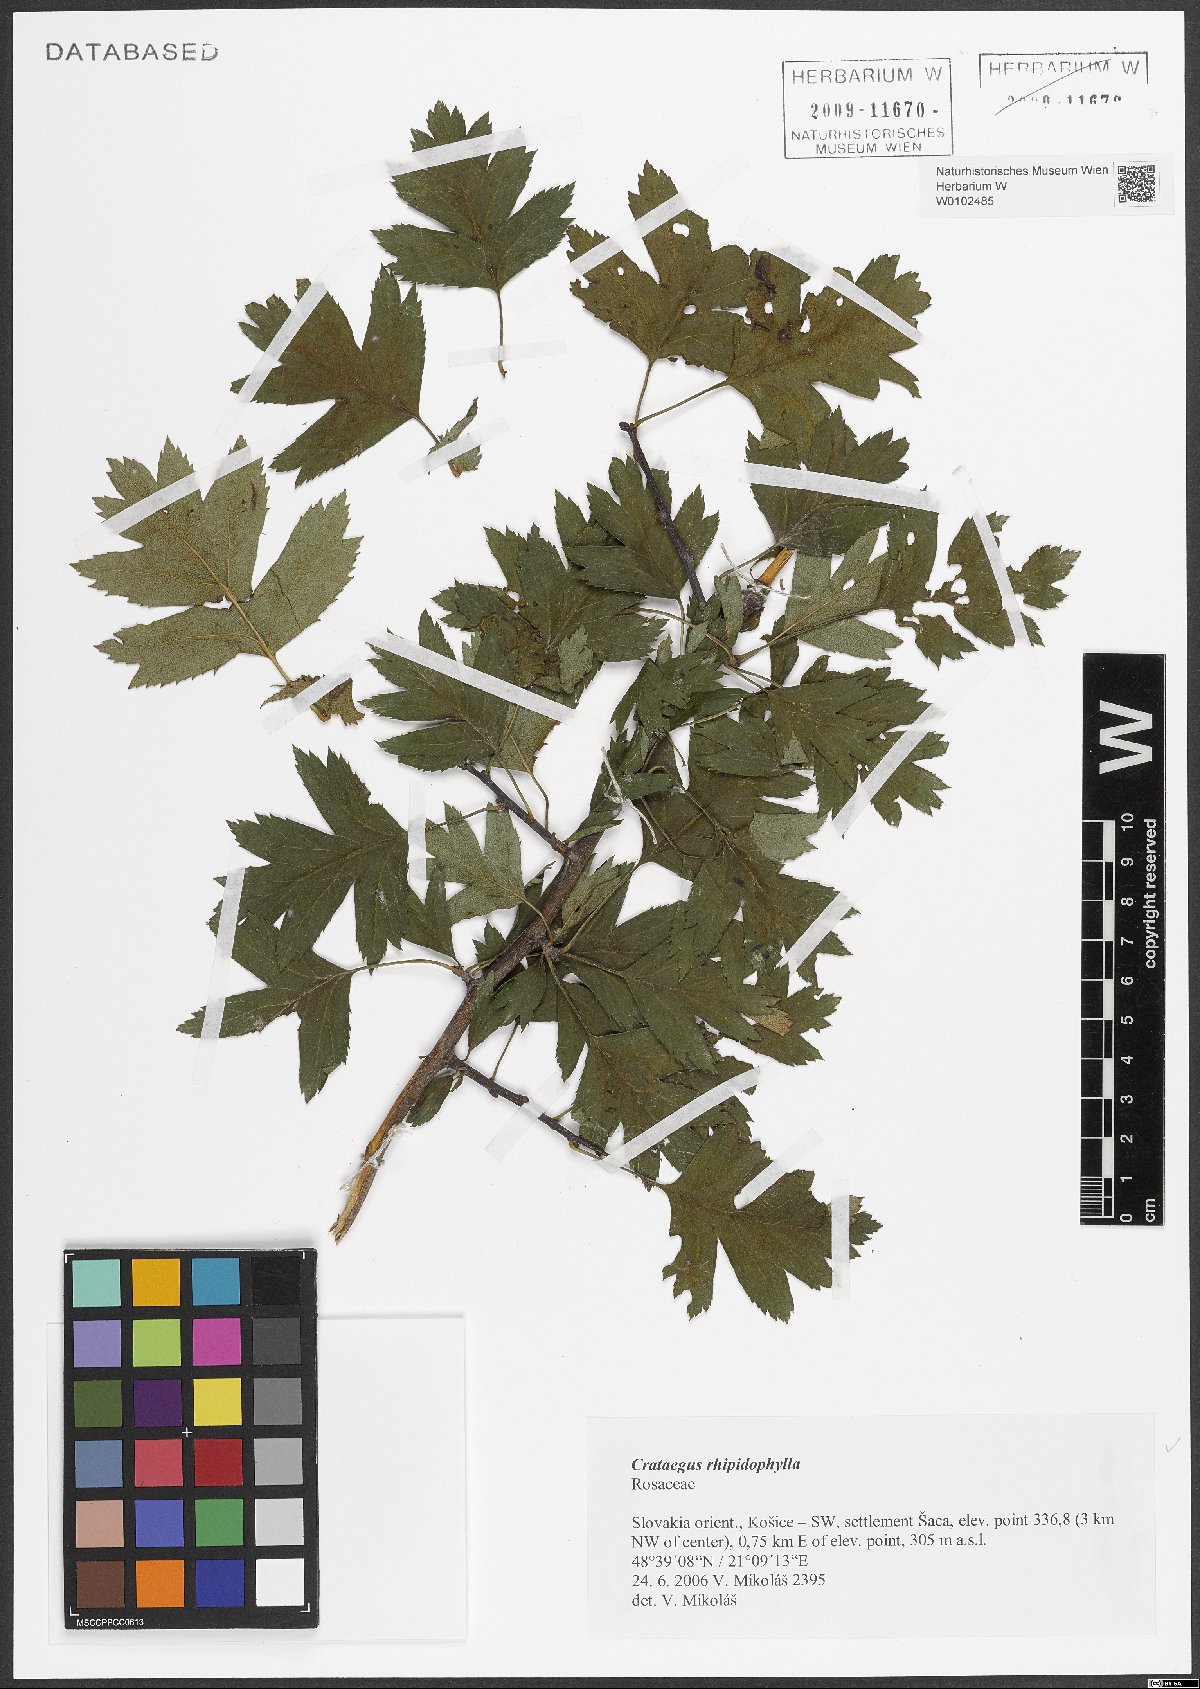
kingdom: Plantae
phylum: Tracheophyta
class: Magnoliopsida
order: Rosales
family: Rosaceae
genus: Crataegus
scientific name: Crataegus rhipidophylla
